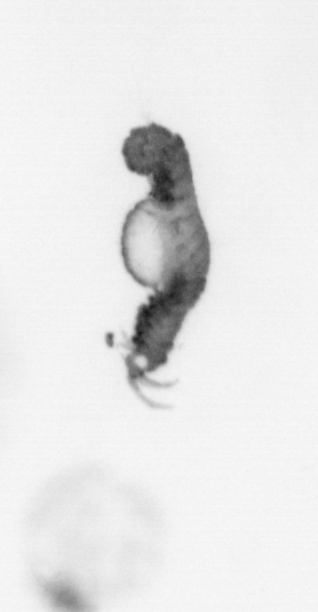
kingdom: Animalia
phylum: Annelida
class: Polychaeta
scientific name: Polychaeta
